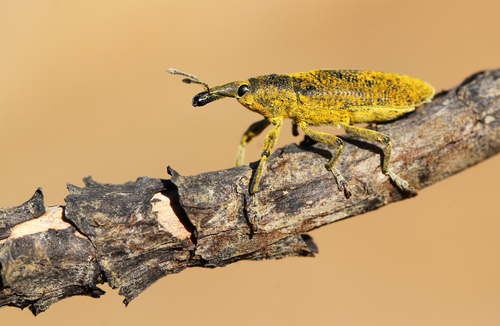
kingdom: Animalia
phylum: Arthropoda
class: Insecta
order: Coleoptera
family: Curculionidae
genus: Lixus
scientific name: Lixus pulverulentus
